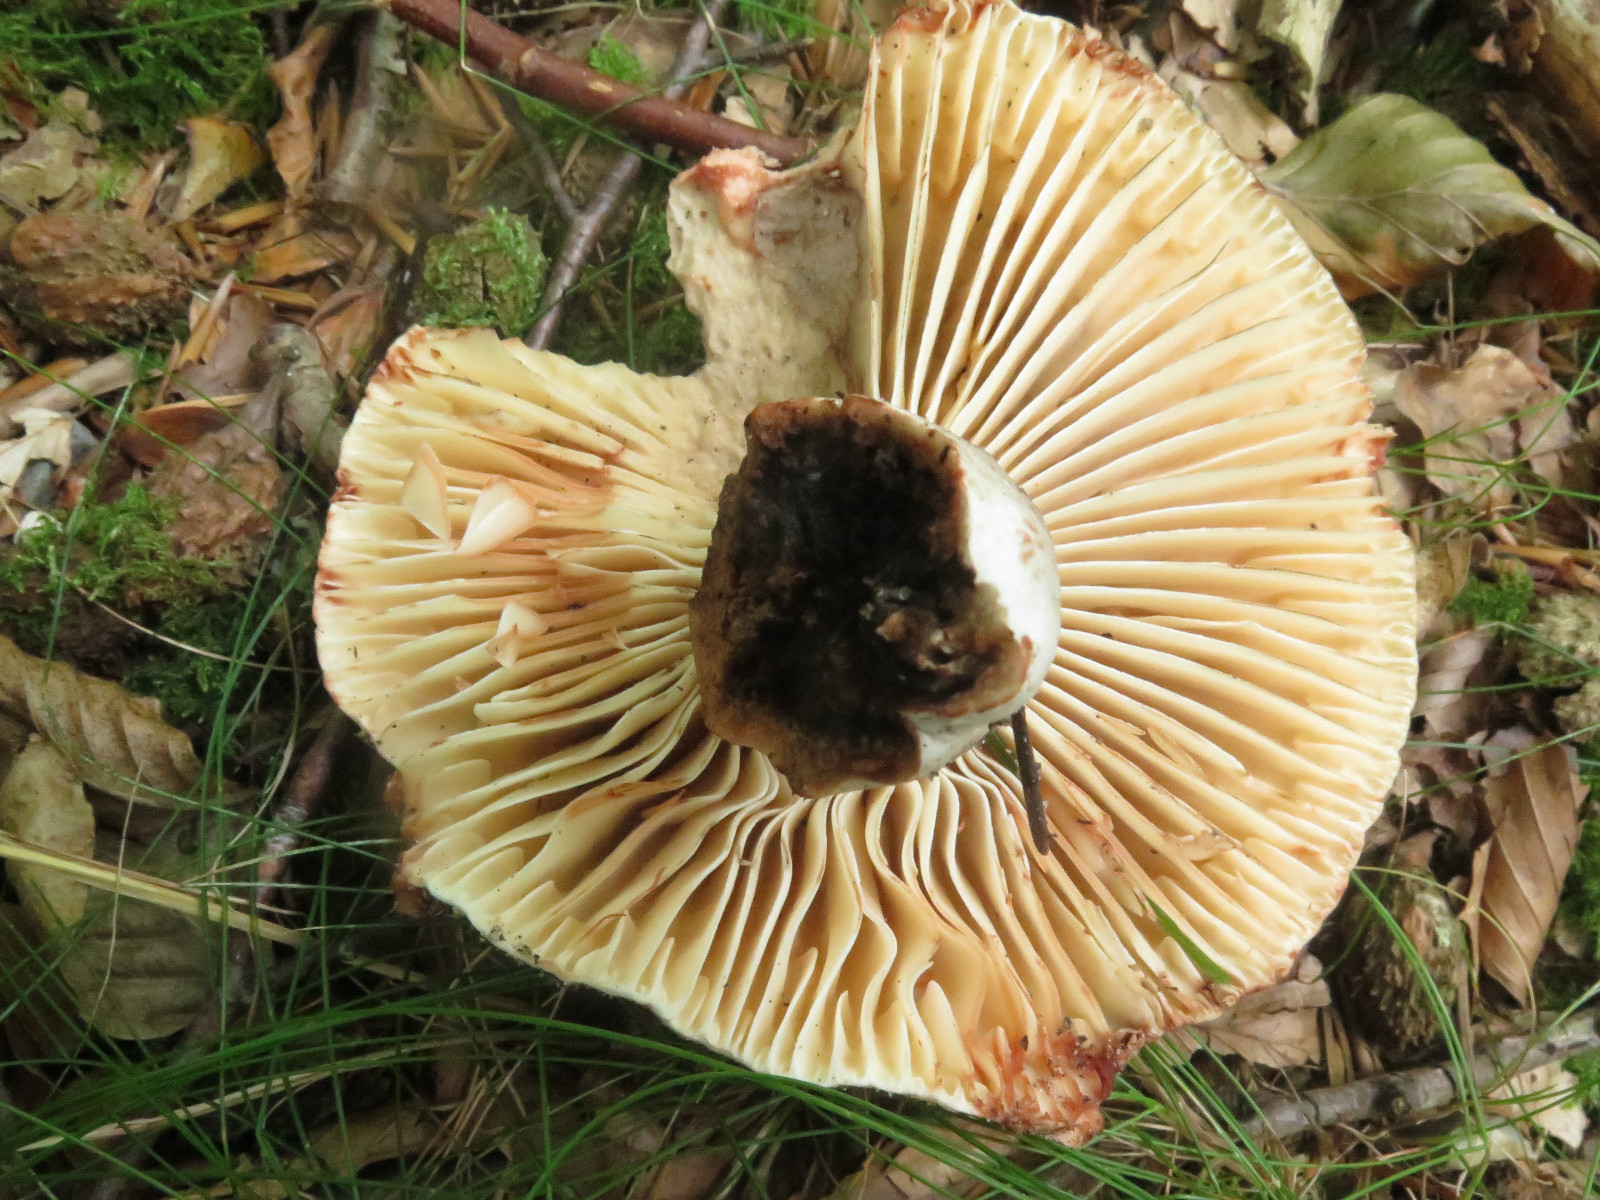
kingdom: Fungi
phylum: Basidiomycota
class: Agaricomycetes
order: Russulales
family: Russulaceae
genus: Russula
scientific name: Russula adusta
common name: sværtende skørhat
